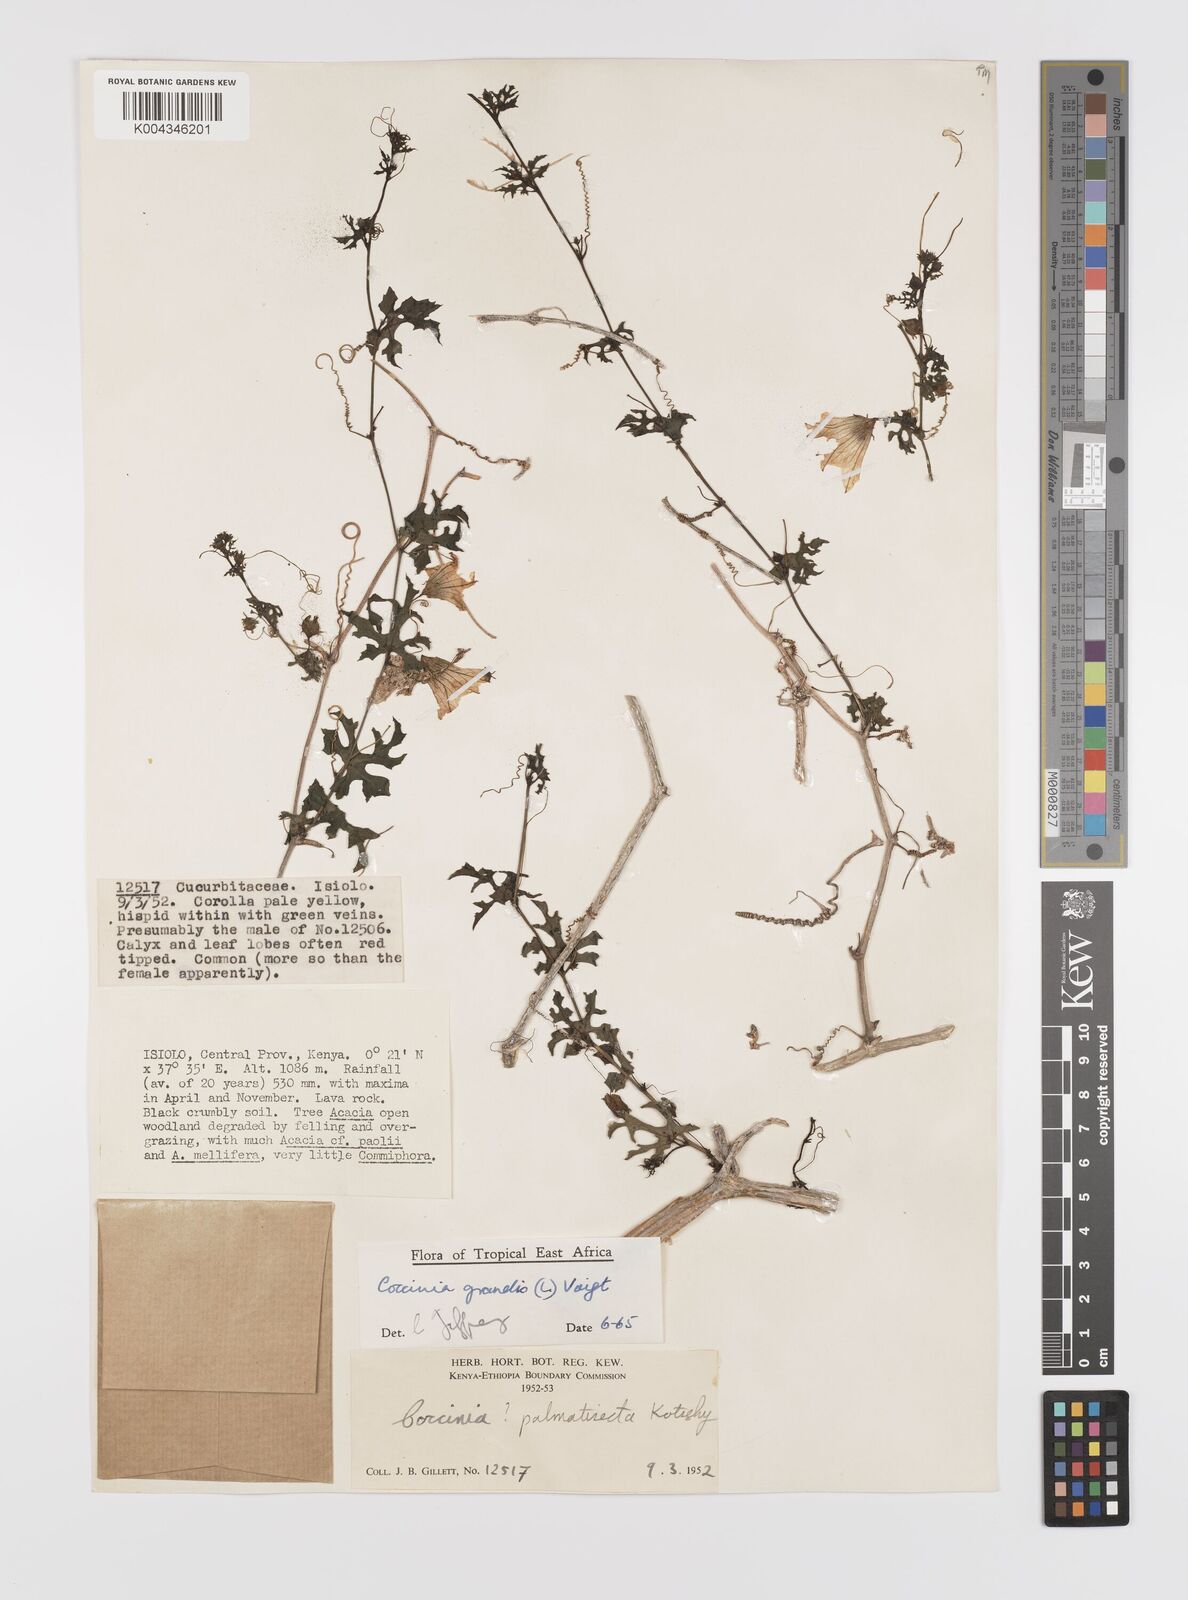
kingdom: Plantae
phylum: Tracheophyta
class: Magnoliopsida
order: Cucurbitales
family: Cucurbitaceae
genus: Coccinia
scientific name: Coccinia grandis
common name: Ivy gourd
